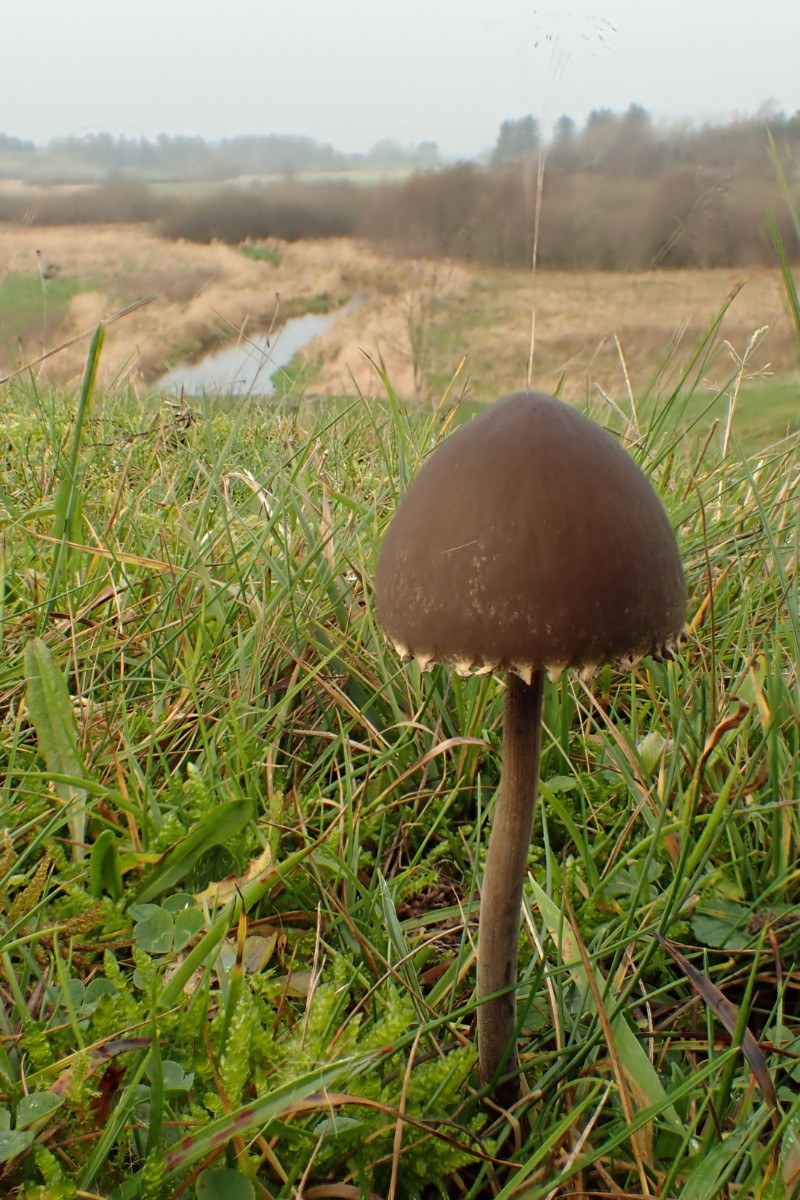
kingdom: Fungi
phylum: Basidiomycota
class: Agaricomycetes
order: Agaricales
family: Bolbitiaceae
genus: Panaeolus
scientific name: Panaeolus papilionaceus
